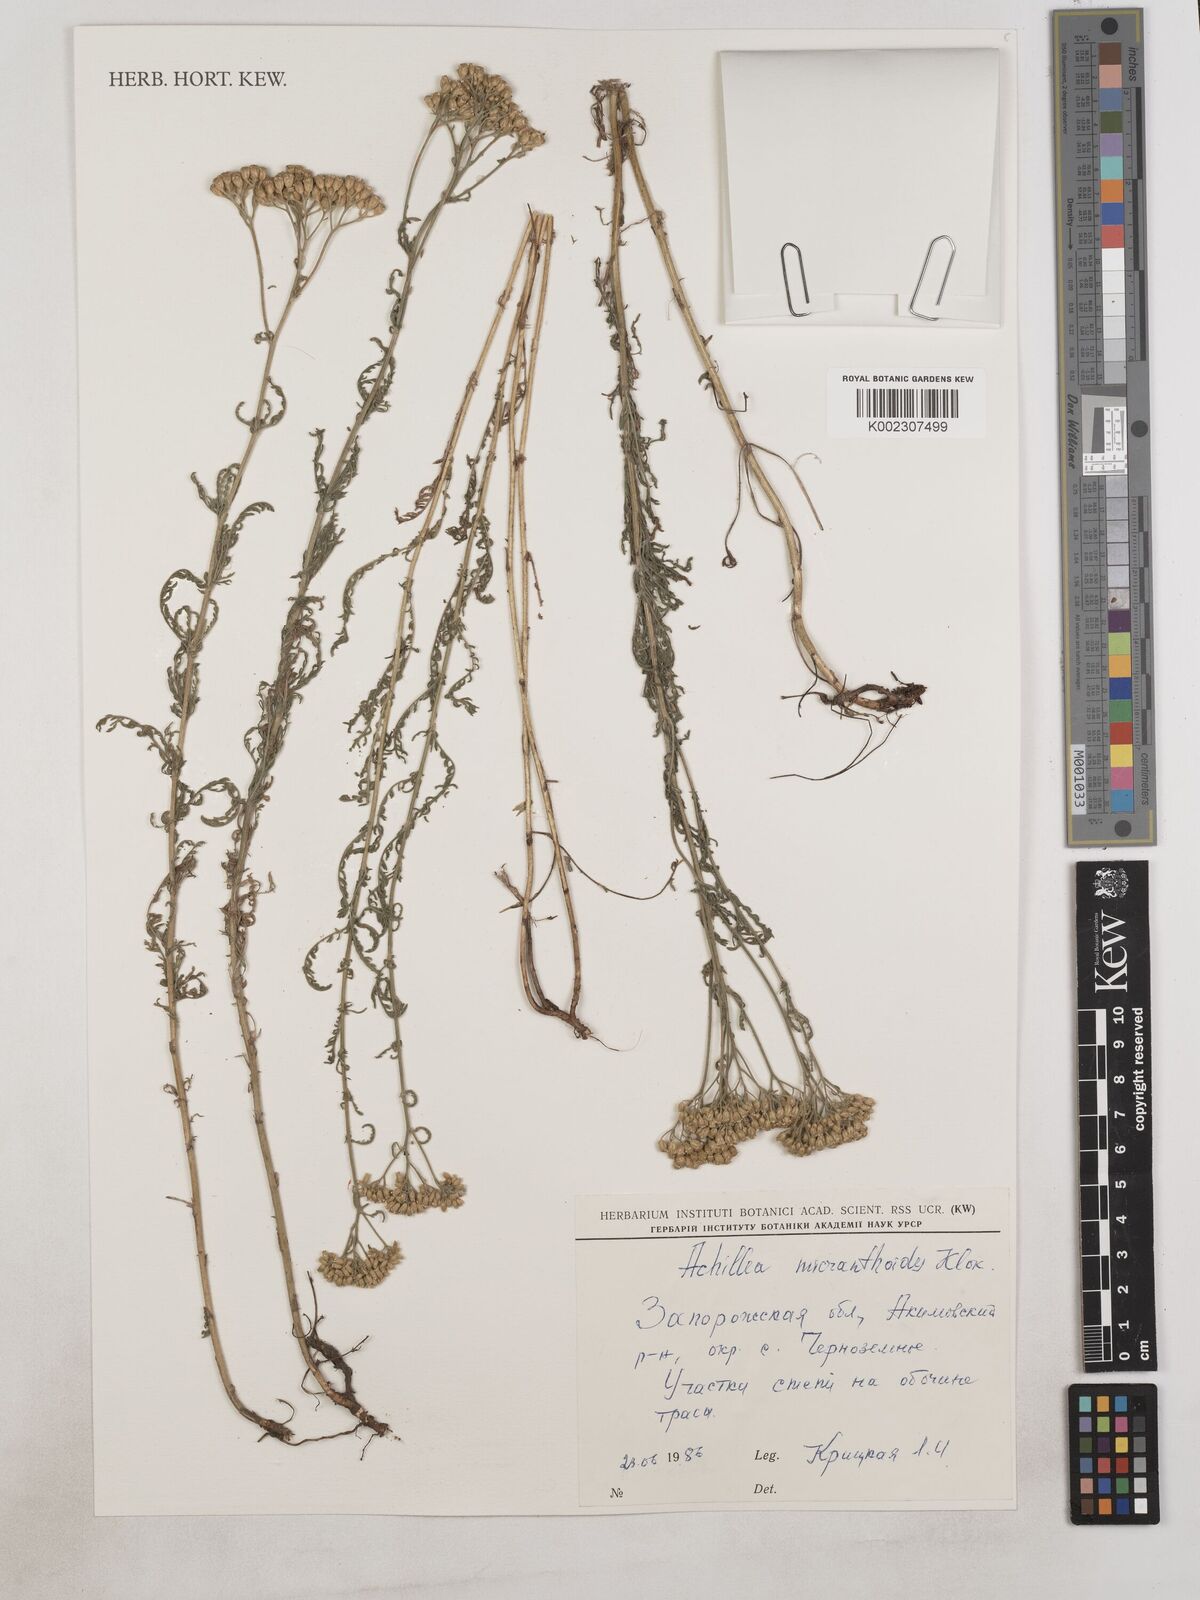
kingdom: Plantae
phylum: Tracheophyta
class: Magnoliopsida
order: Asterales
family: Asteraceae
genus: Achillea
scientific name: Achillea arabica
